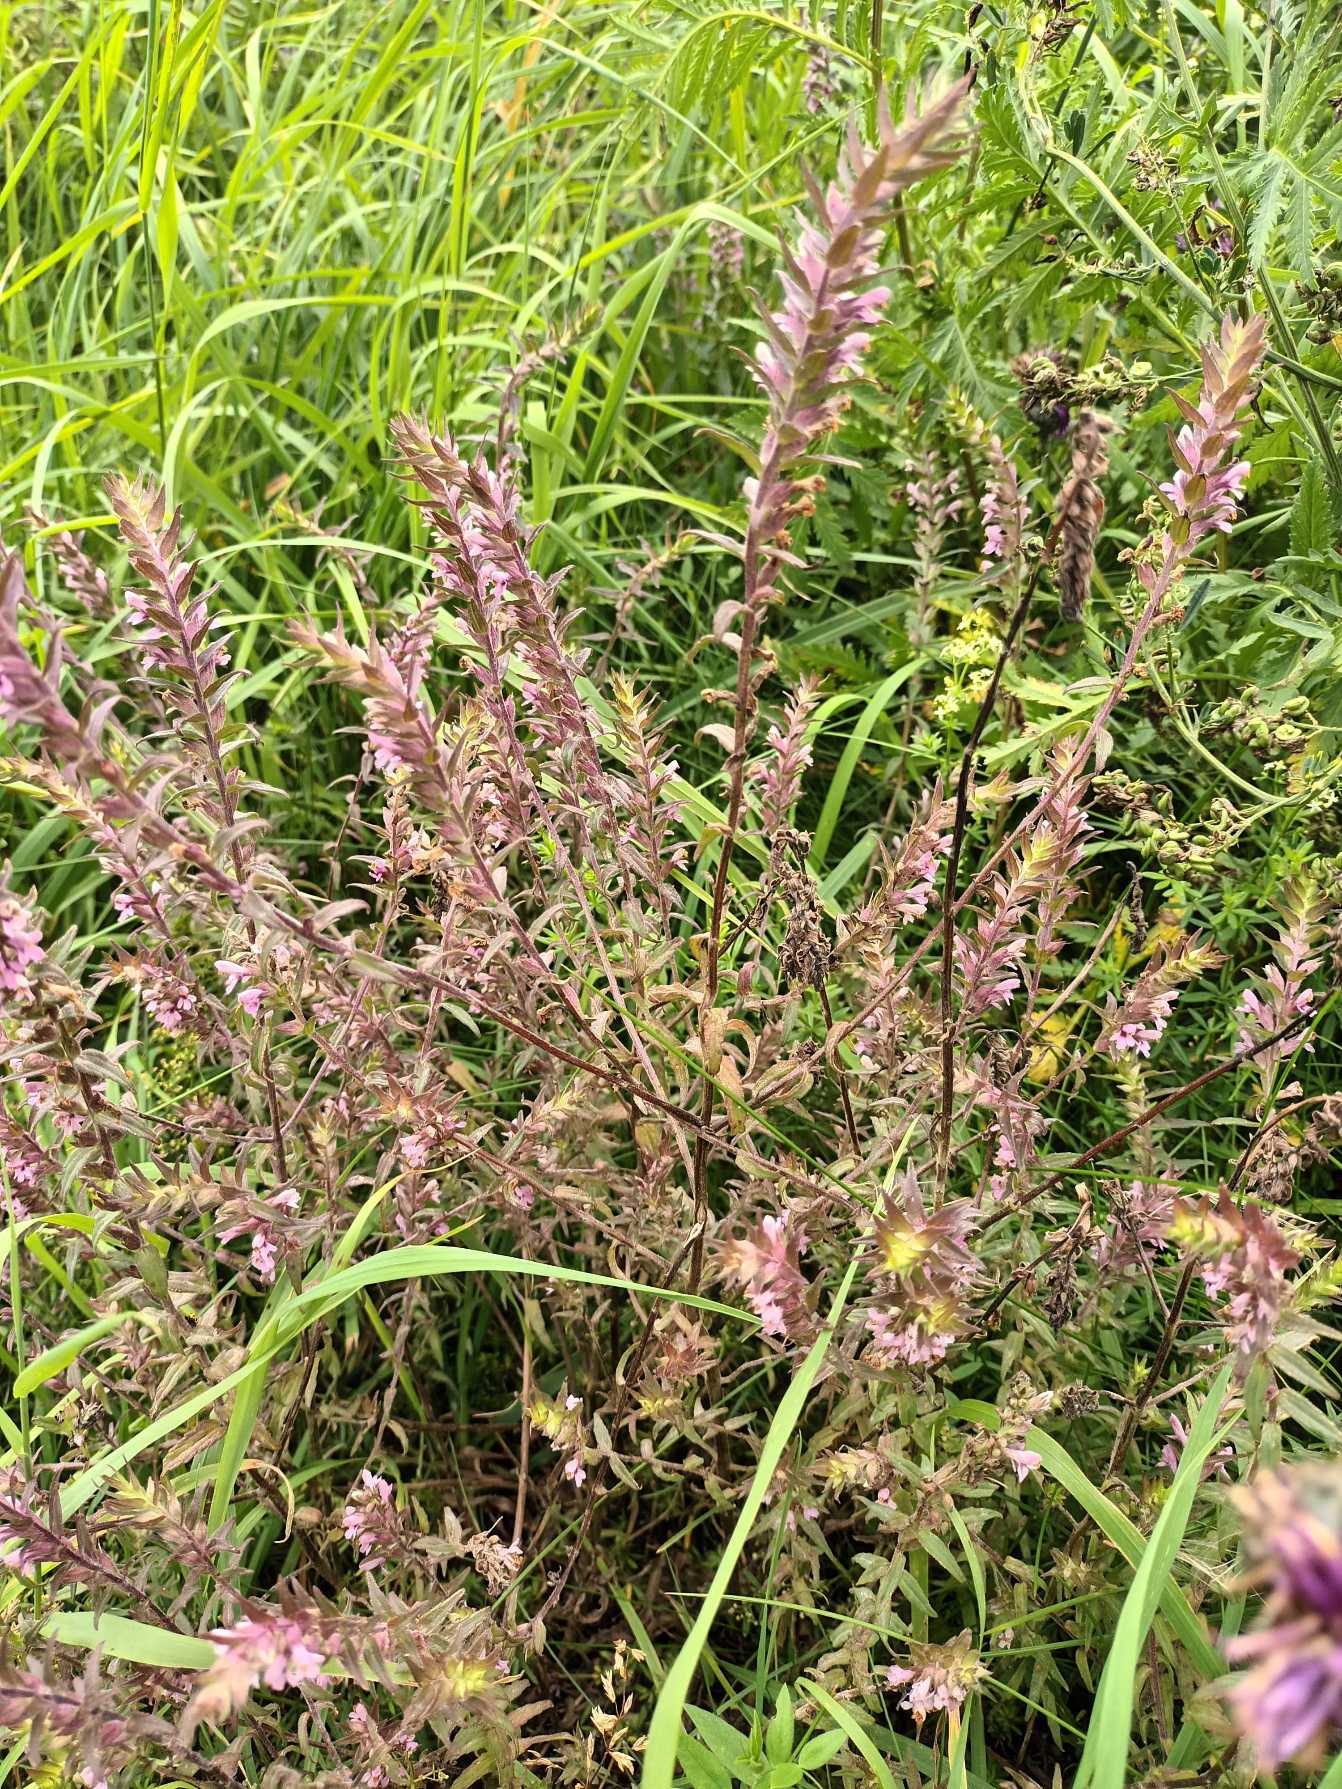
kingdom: Plantae
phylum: Tracheophyta
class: Magnoliopsida
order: Lamiales
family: Orobanchaceae
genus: Odontites
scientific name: Odontites vulgaris
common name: Høst-rødtop
